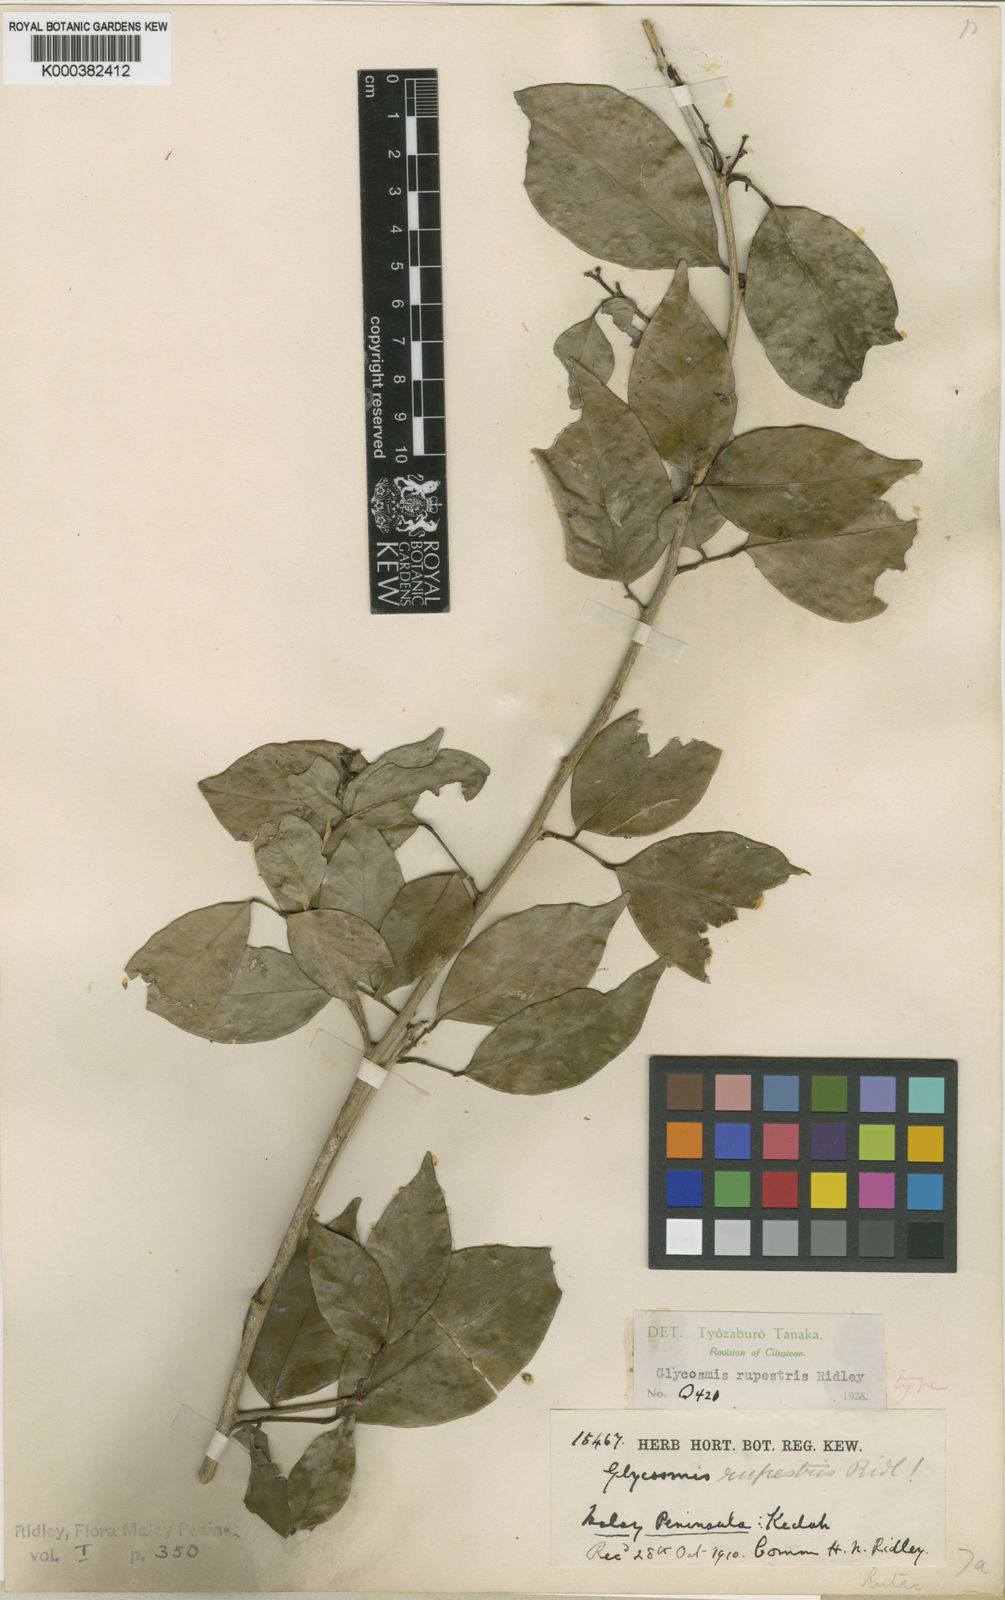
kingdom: Plantae
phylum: Tracheophyta
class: Magnoliopsida
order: Sapindales
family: Rutaceae
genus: Glycosmis
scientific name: Glycosmis mauritiana
